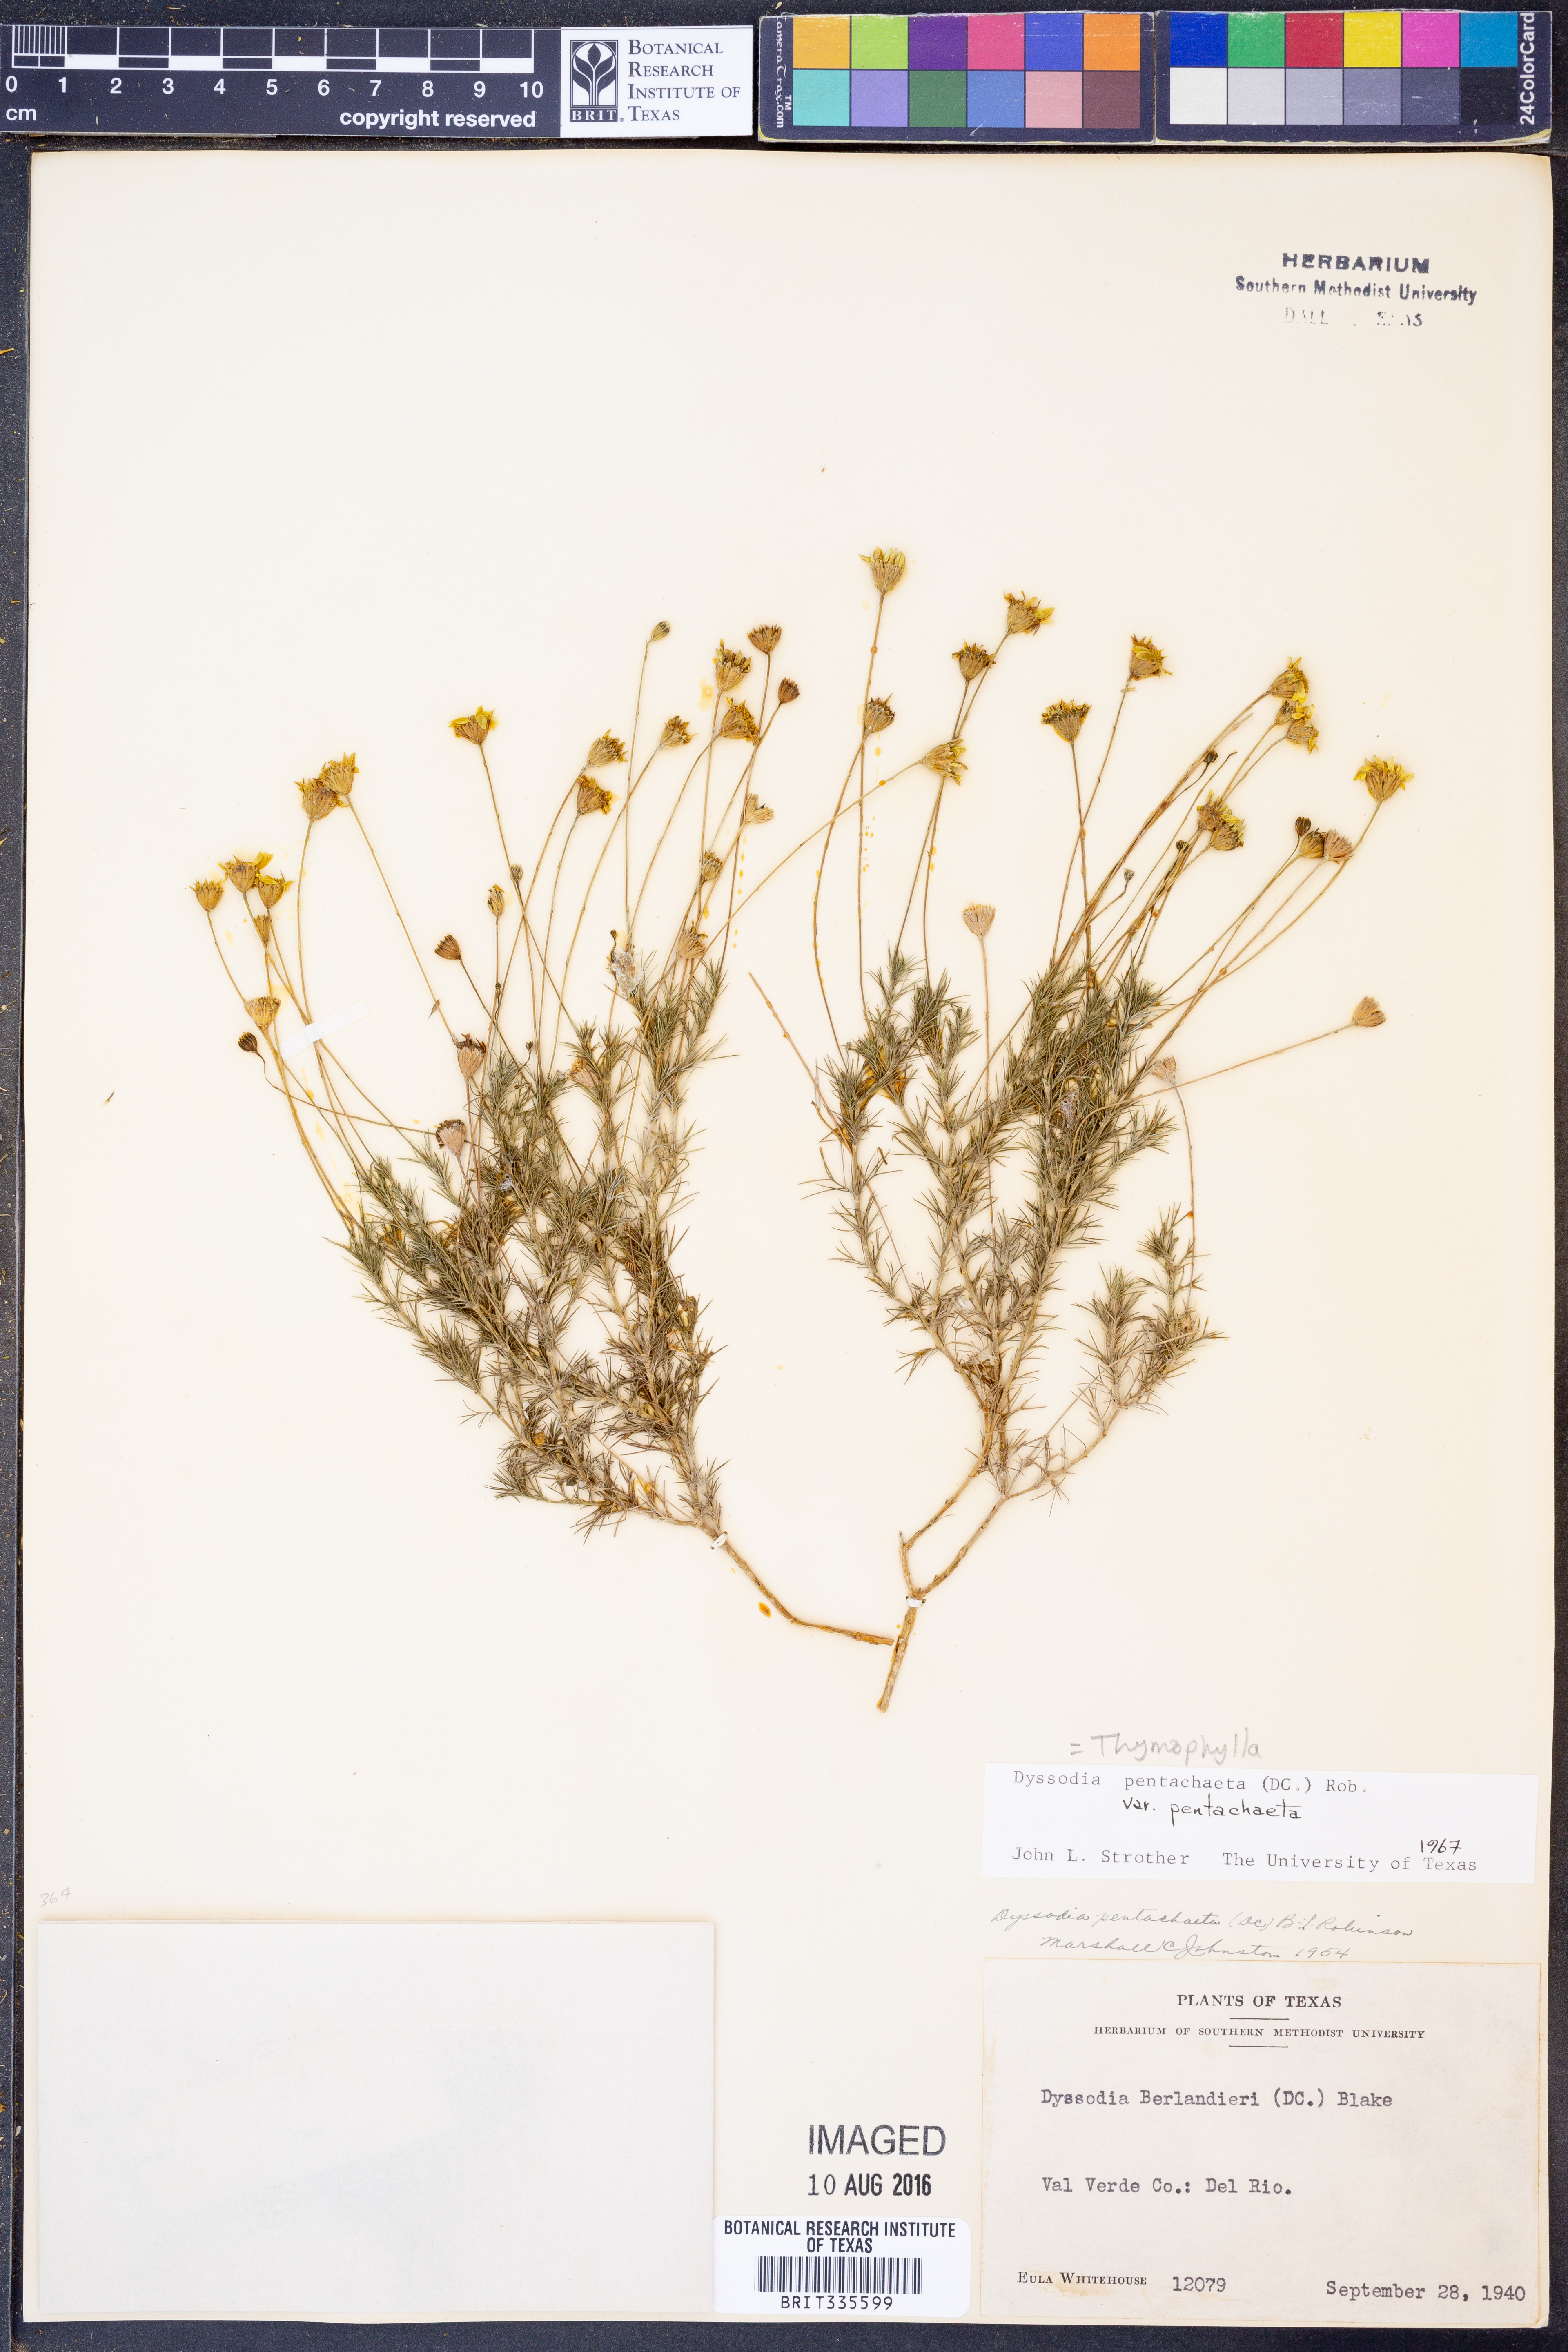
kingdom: Plantae
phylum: Tracheophyta
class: Magnoliopsida
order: Asterales
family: Asteraceae
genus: Thymophylla
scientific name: Thymophylla pentachaeta
